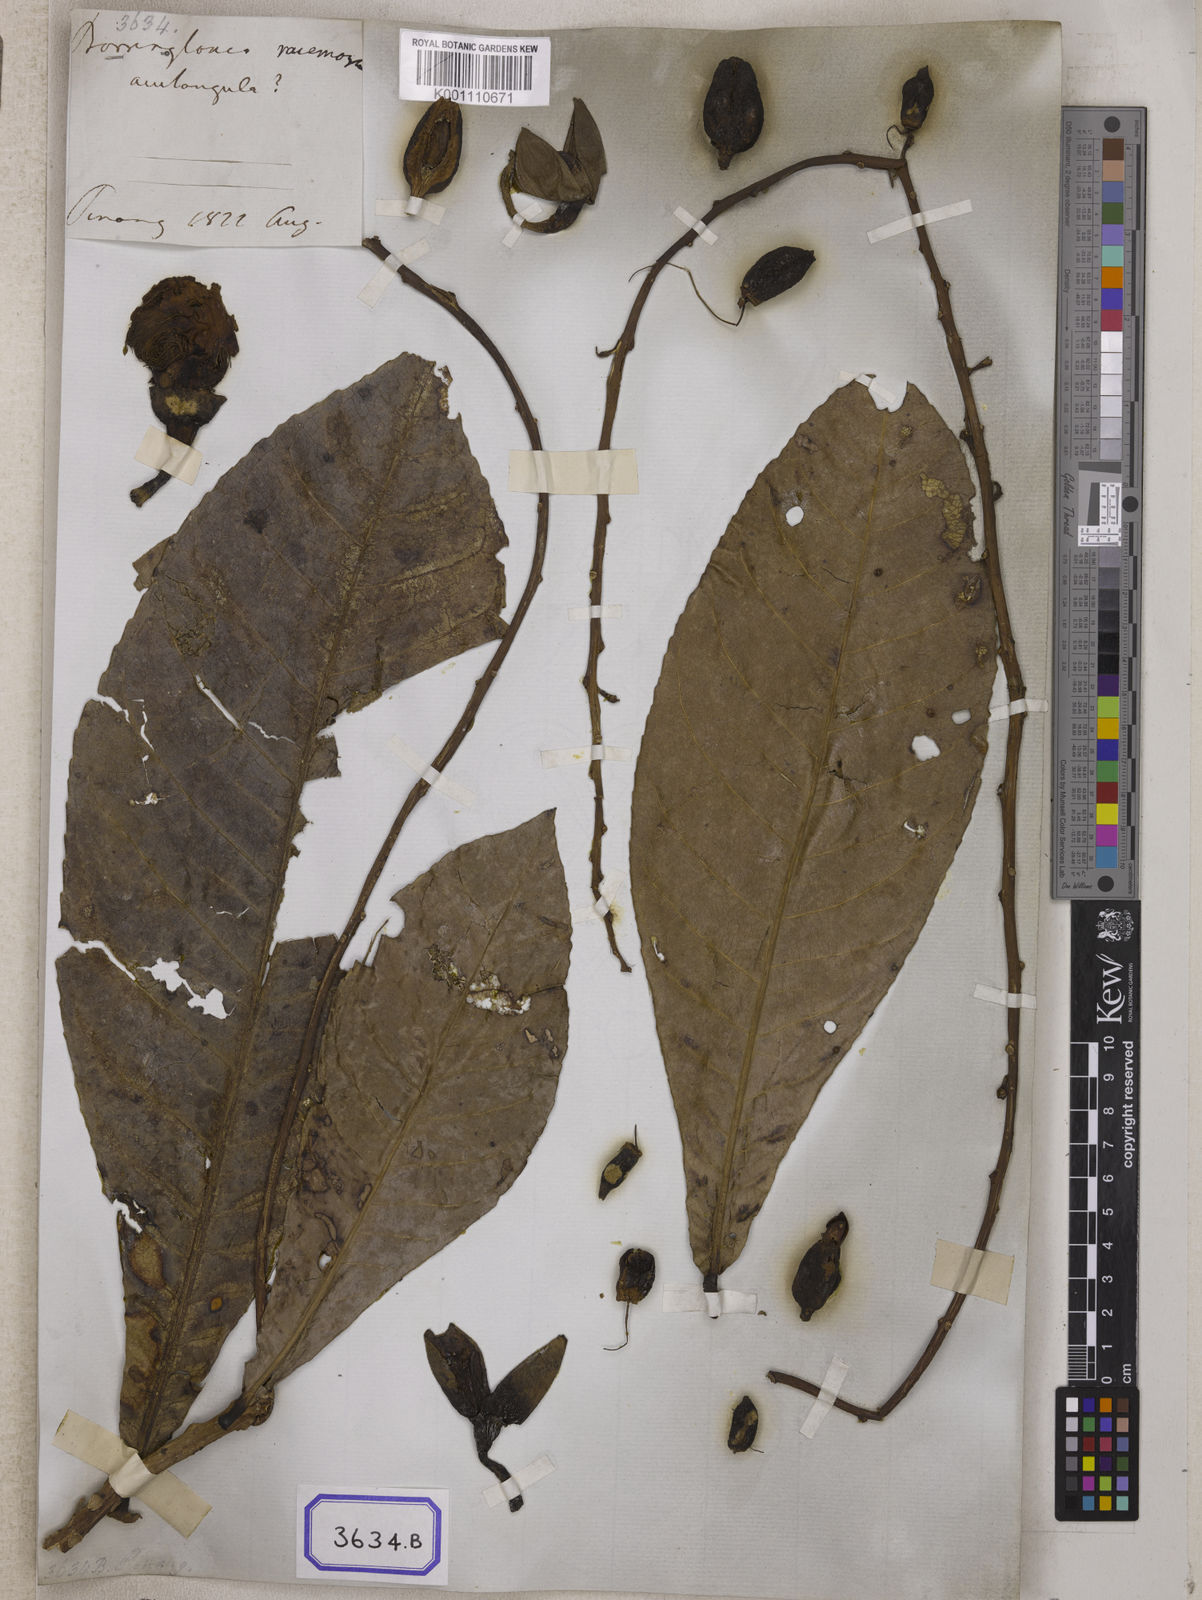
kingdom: Plantae
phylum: Tracheophyta
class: Magnoliopsida
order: Ericales
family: Lecythidaceae
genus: Barringtonia
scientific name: Barringtonia
